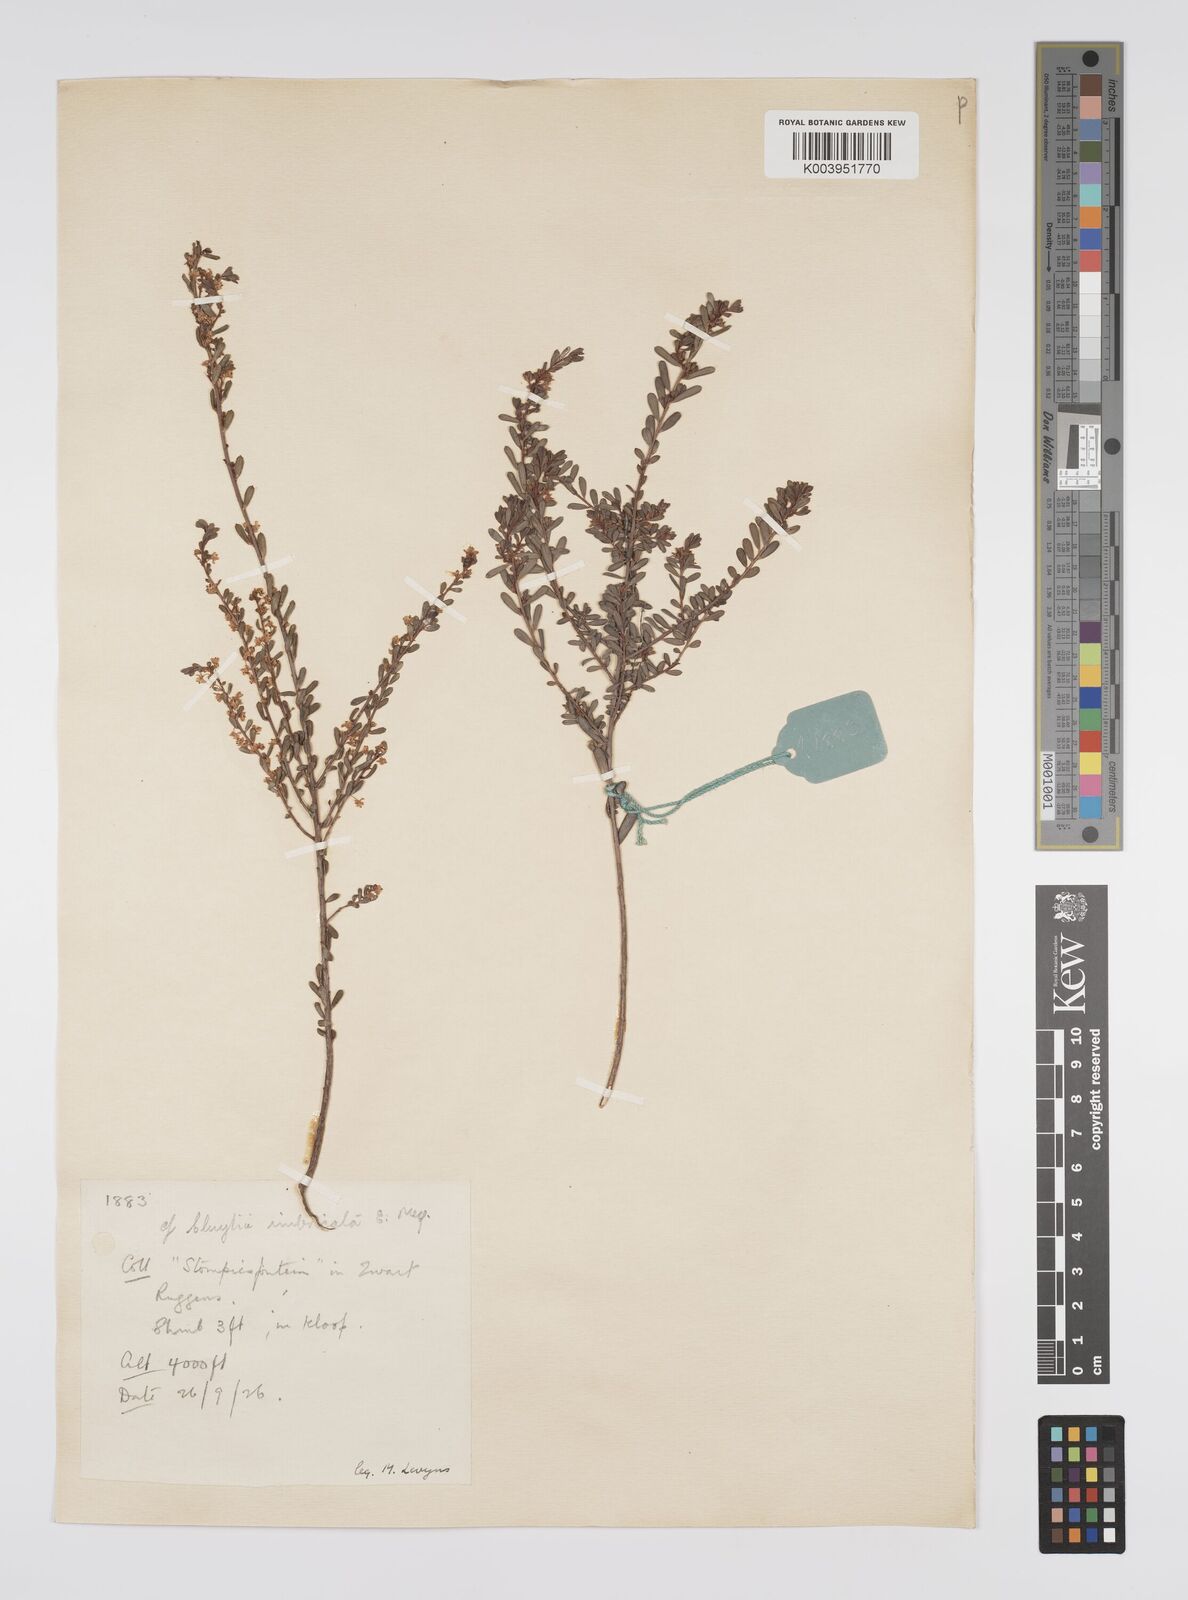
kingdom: Plantae
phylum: Tracheophyta
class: Magnoliopsida
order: Malpighiales
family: Peraceae
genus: Clutia
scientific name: Clutia imbricata
